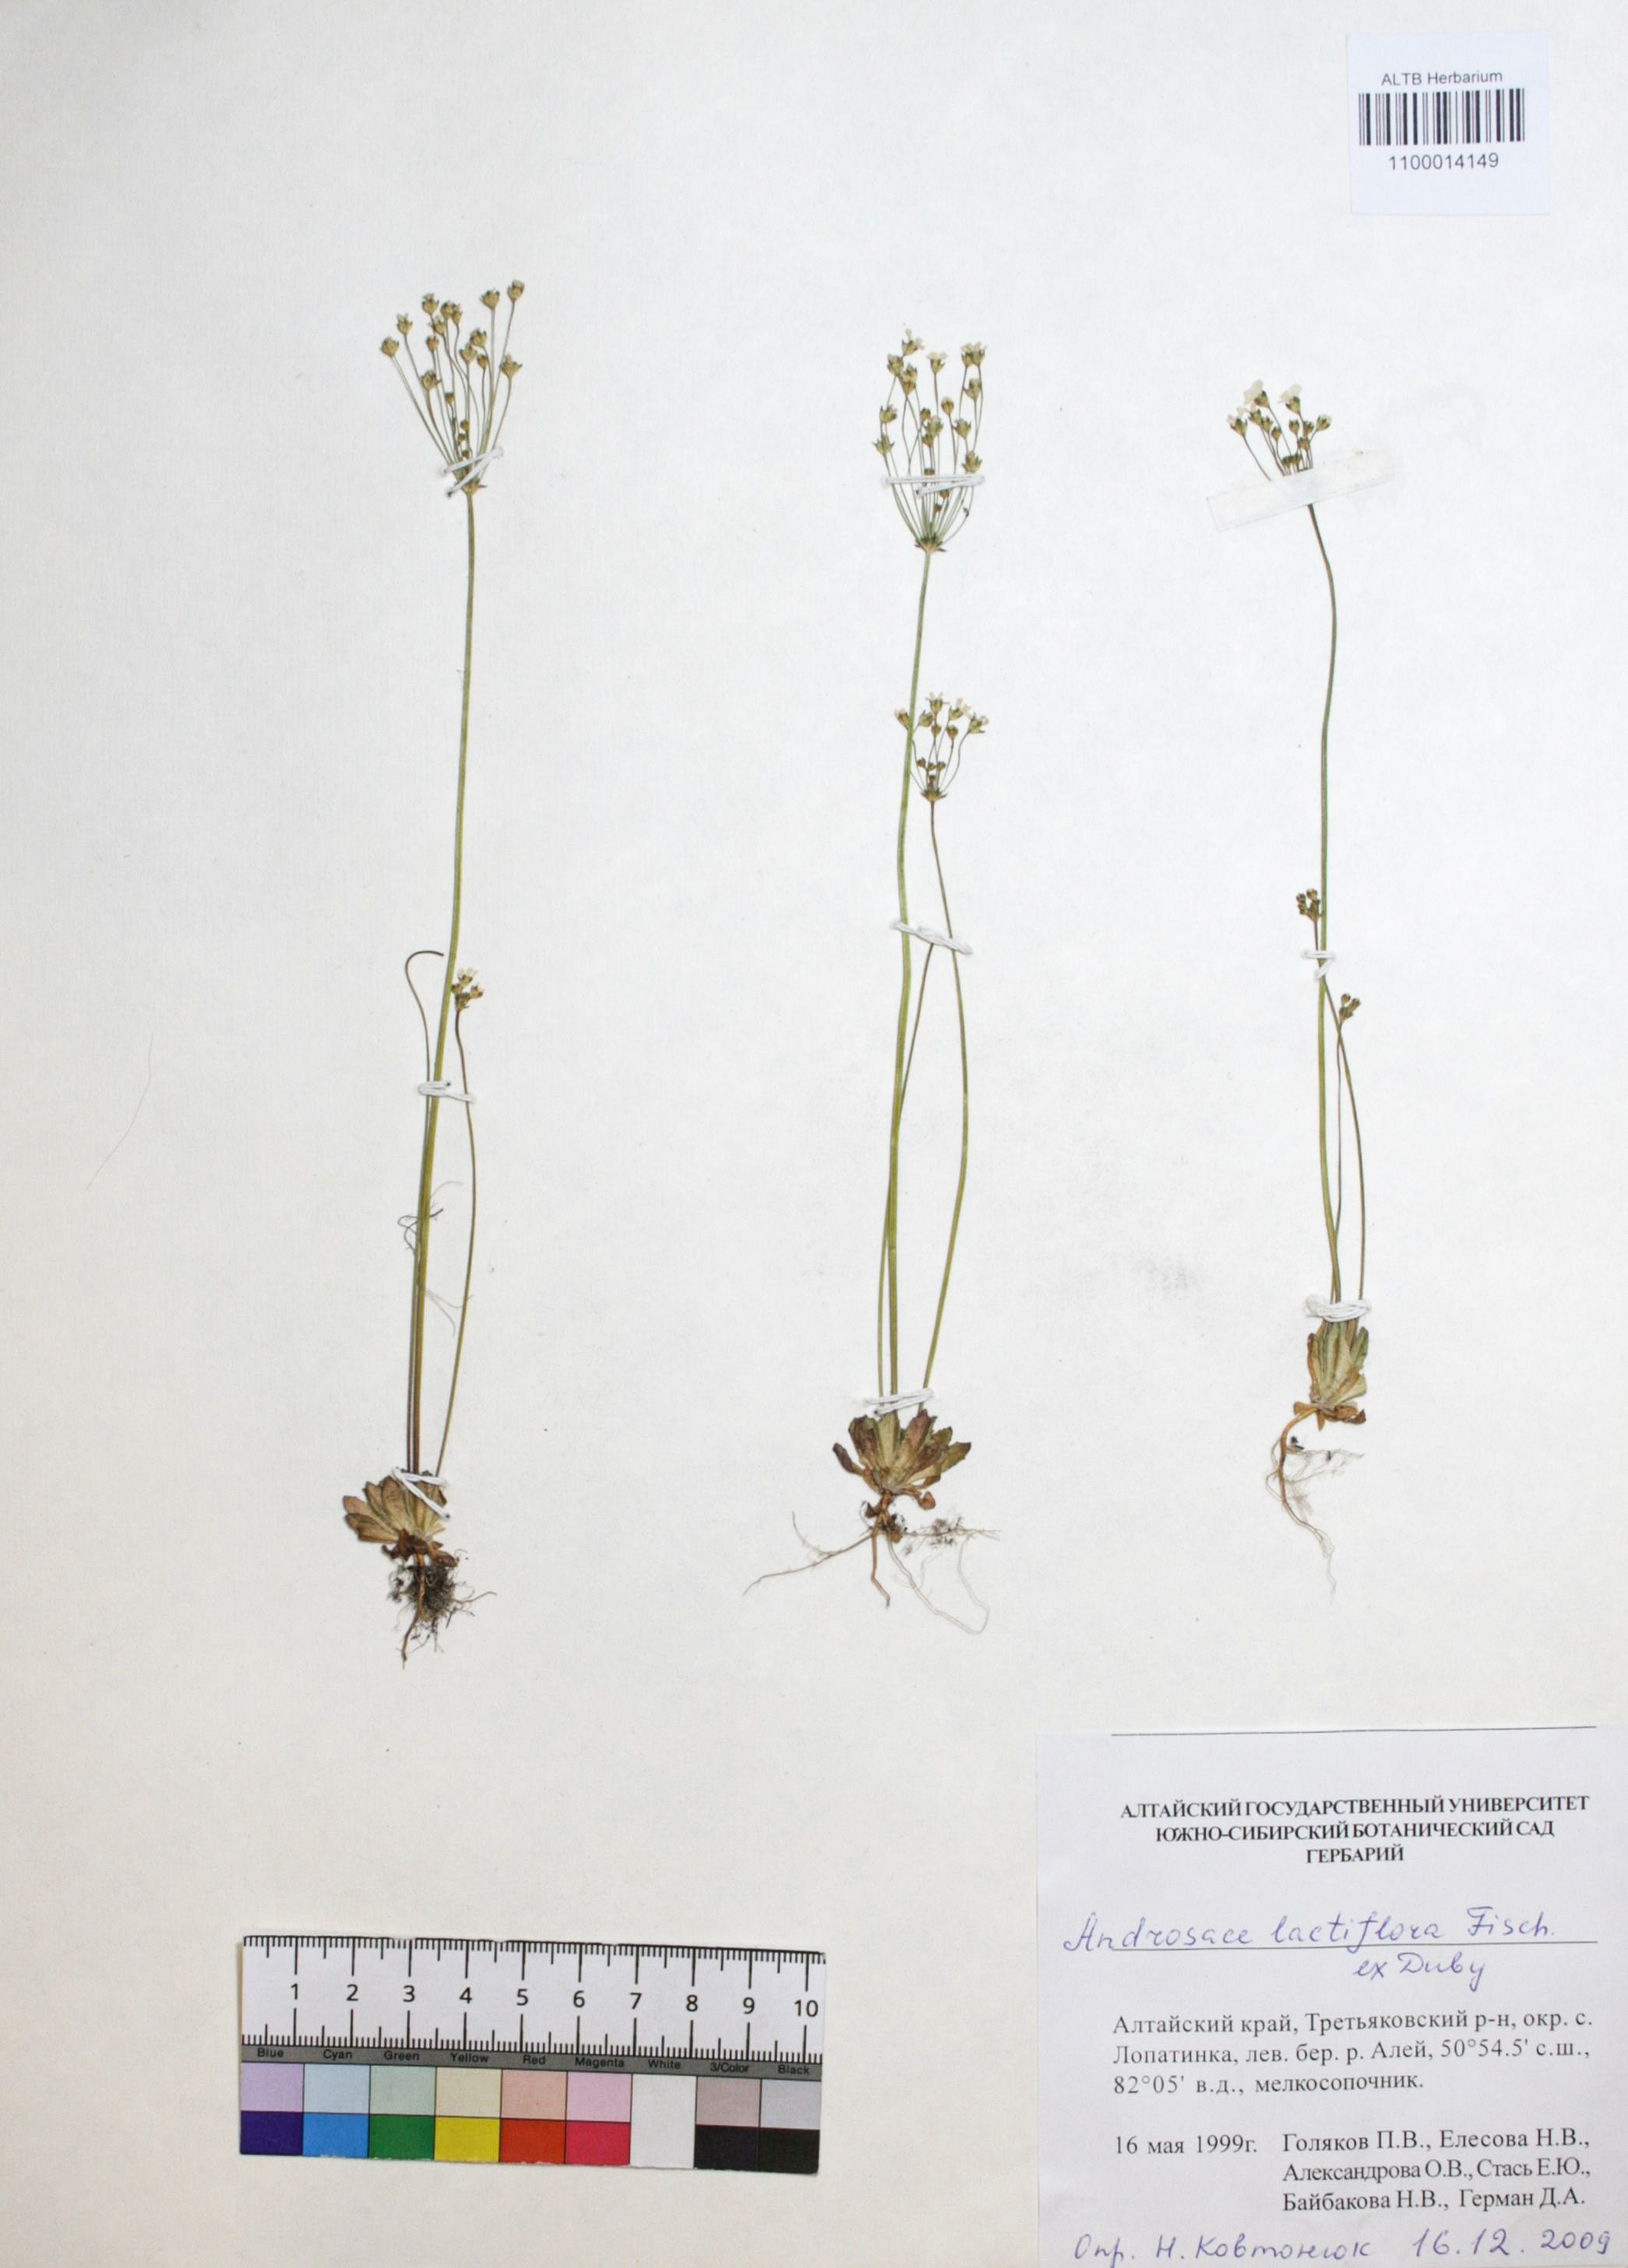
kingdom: Plantae
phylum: Tracheophyta
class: Magnoliopsida
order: Ericales
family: Primulaceae
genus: Androsace
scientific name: Androsace lactiflora
